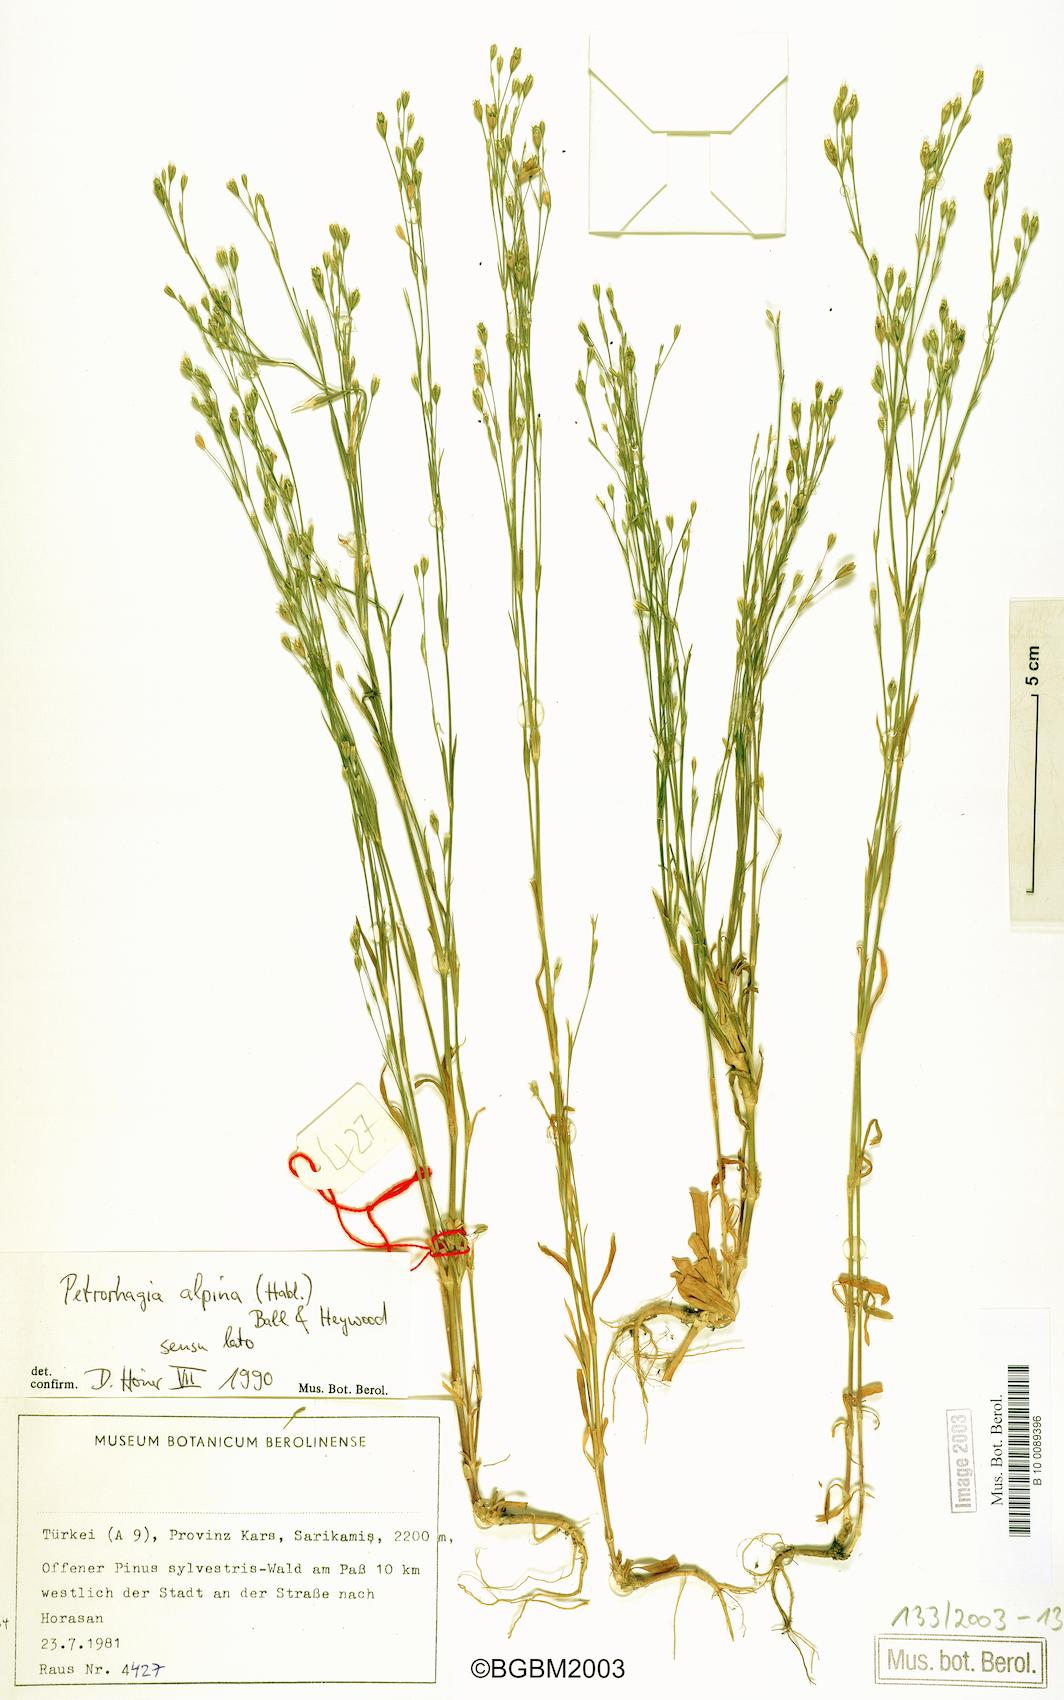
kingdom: Plantae
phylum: Tracheophyta
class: Magnoliopsida
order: Caryophyllales
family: Caryophyllaceae
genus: Petrorhagia
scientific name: Petrorhagia alpina
